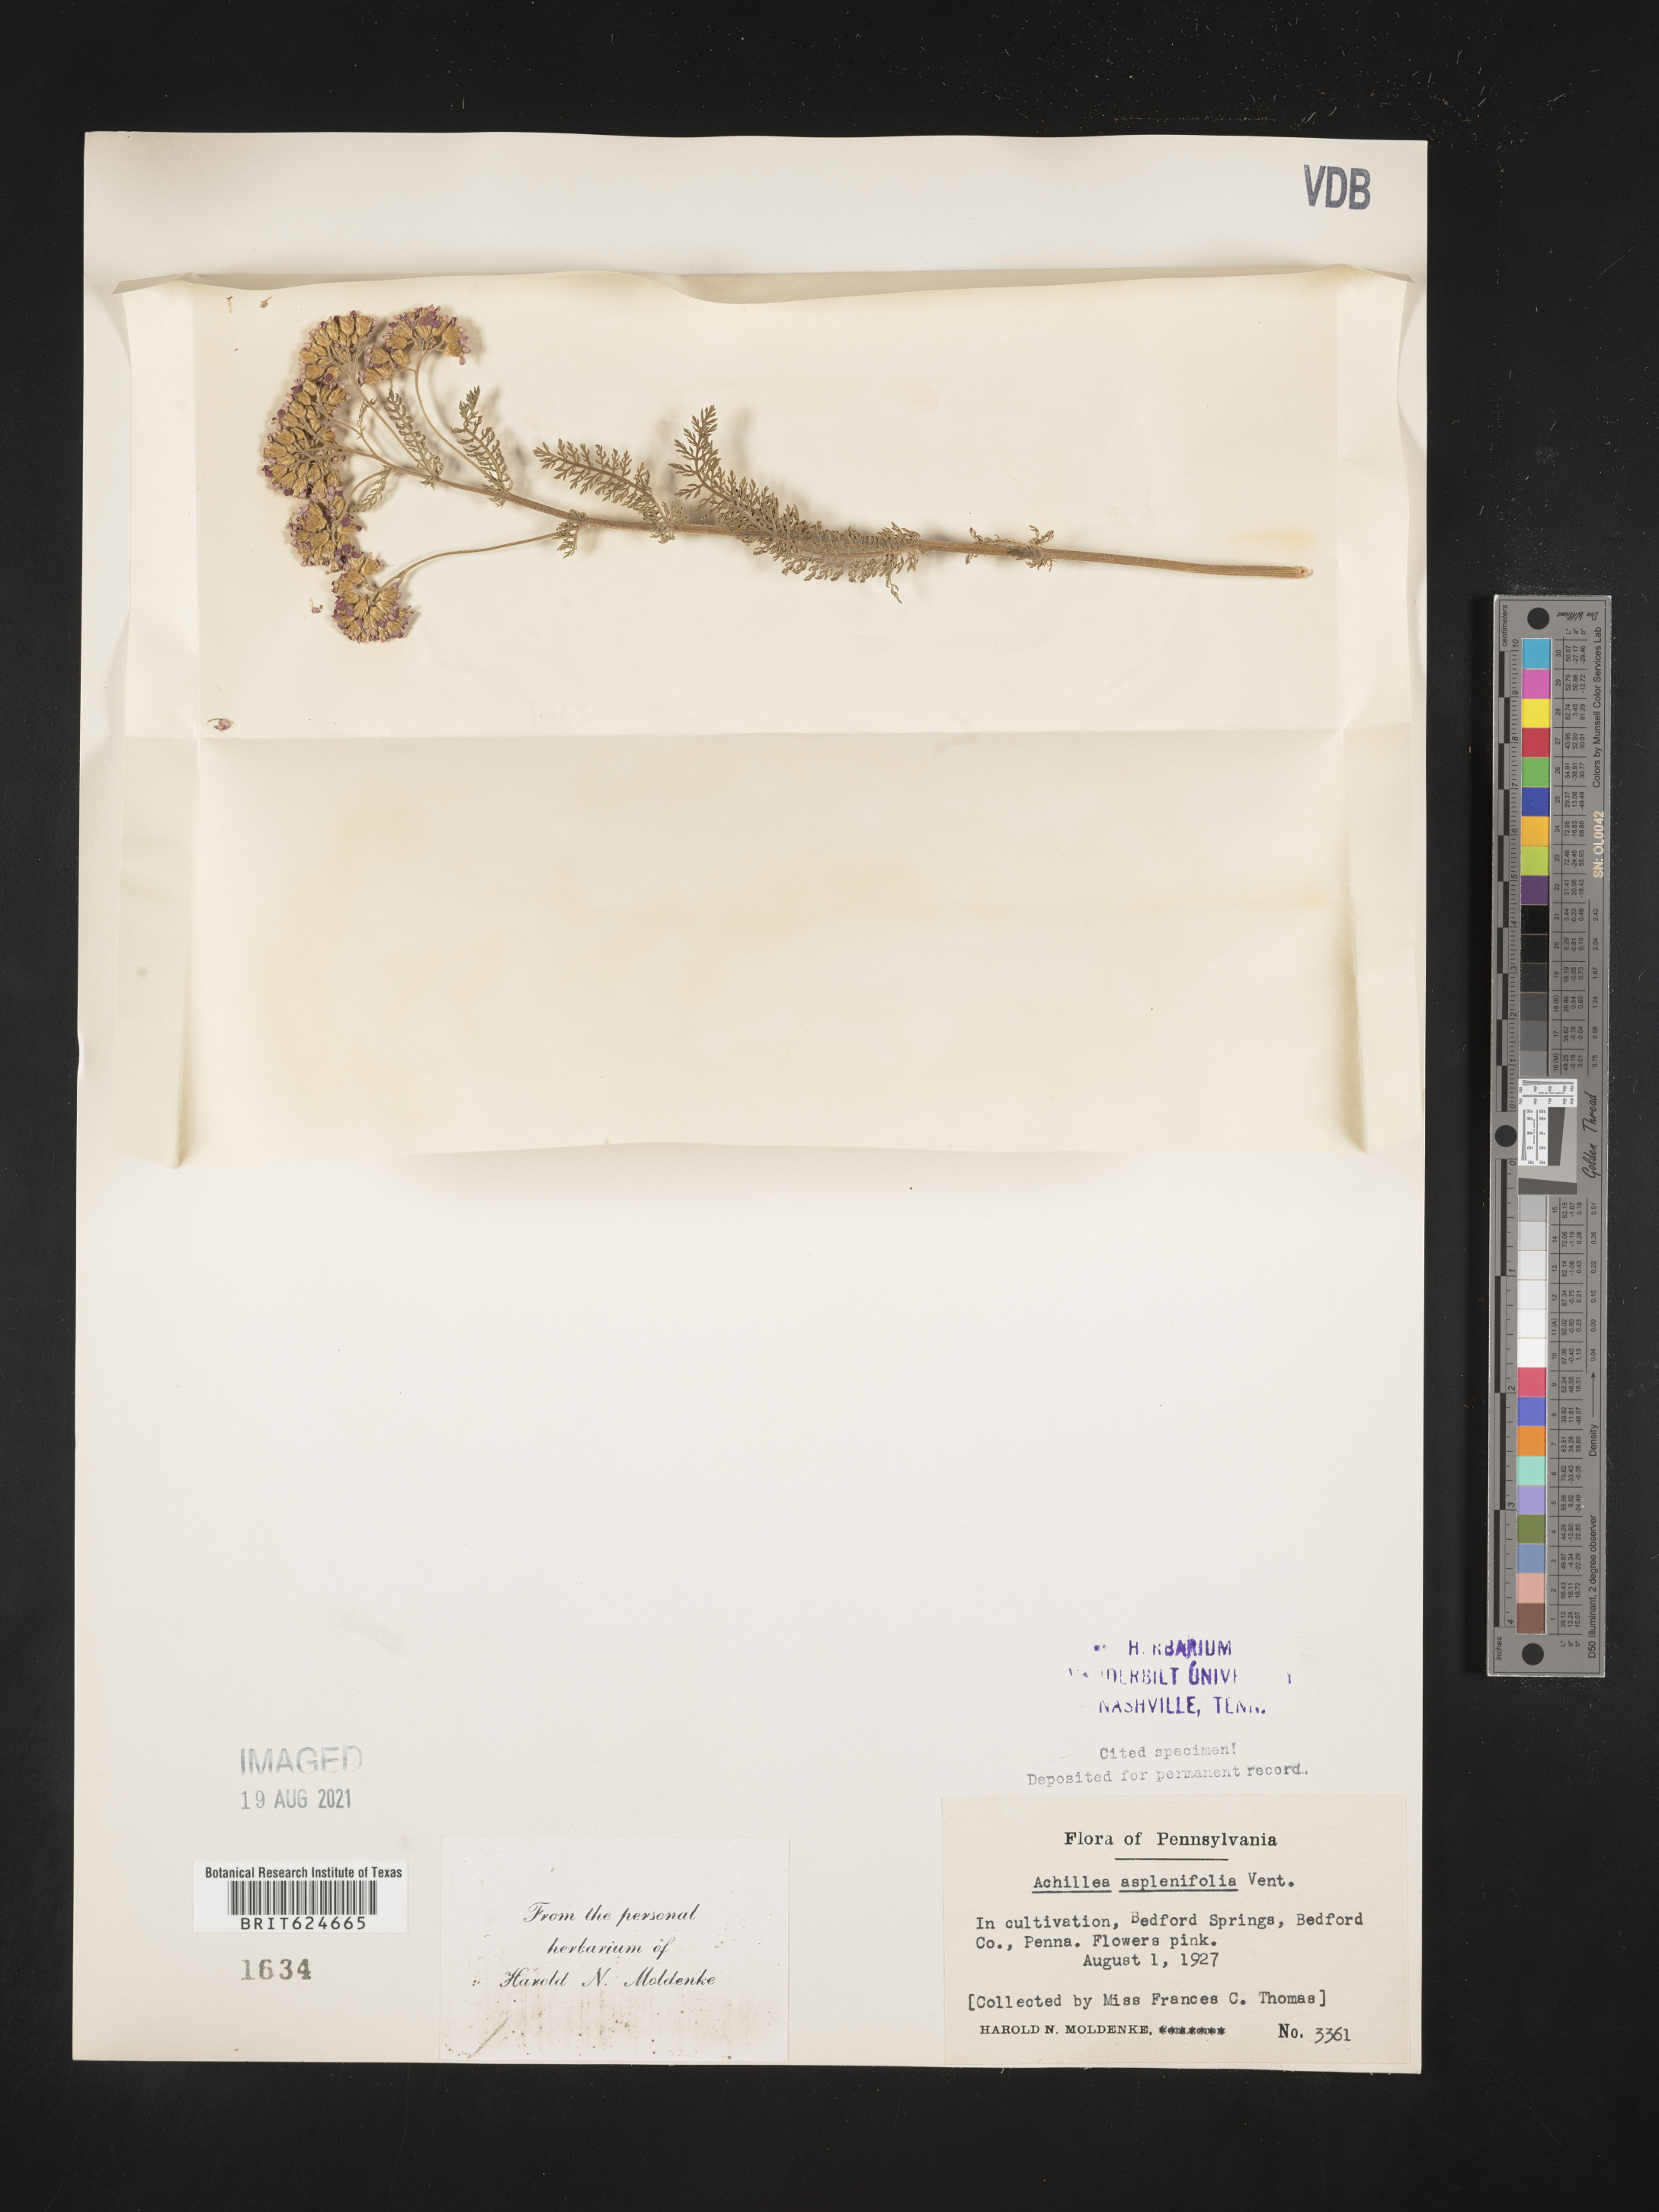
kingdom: Plantae
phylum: Tracheophyta
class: Magnoliopsida
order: Asterales
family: Asteraceae
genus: Achillea
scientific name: Achillea aspleniifolia
